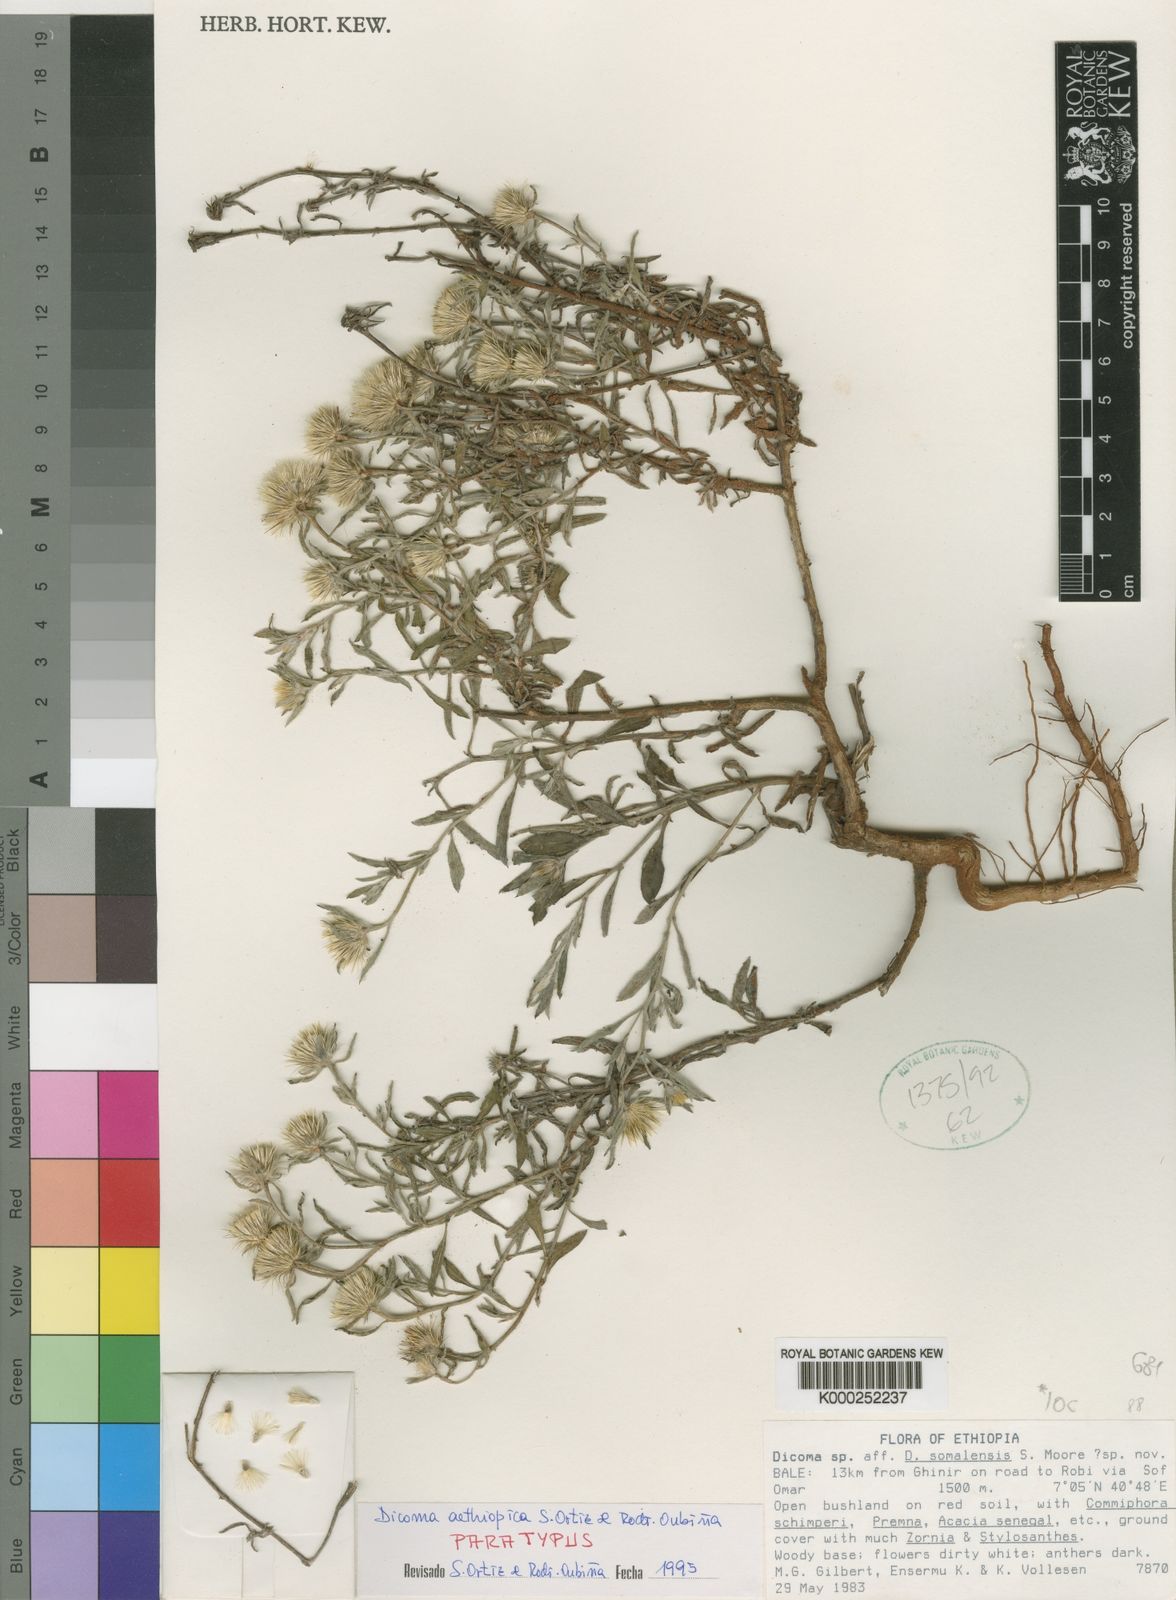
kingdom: Plantae
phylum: Tracheophyta
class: Magnoliopsida
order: Asterales
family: Asteraceae
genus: Dicoma
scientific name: Dicoma
